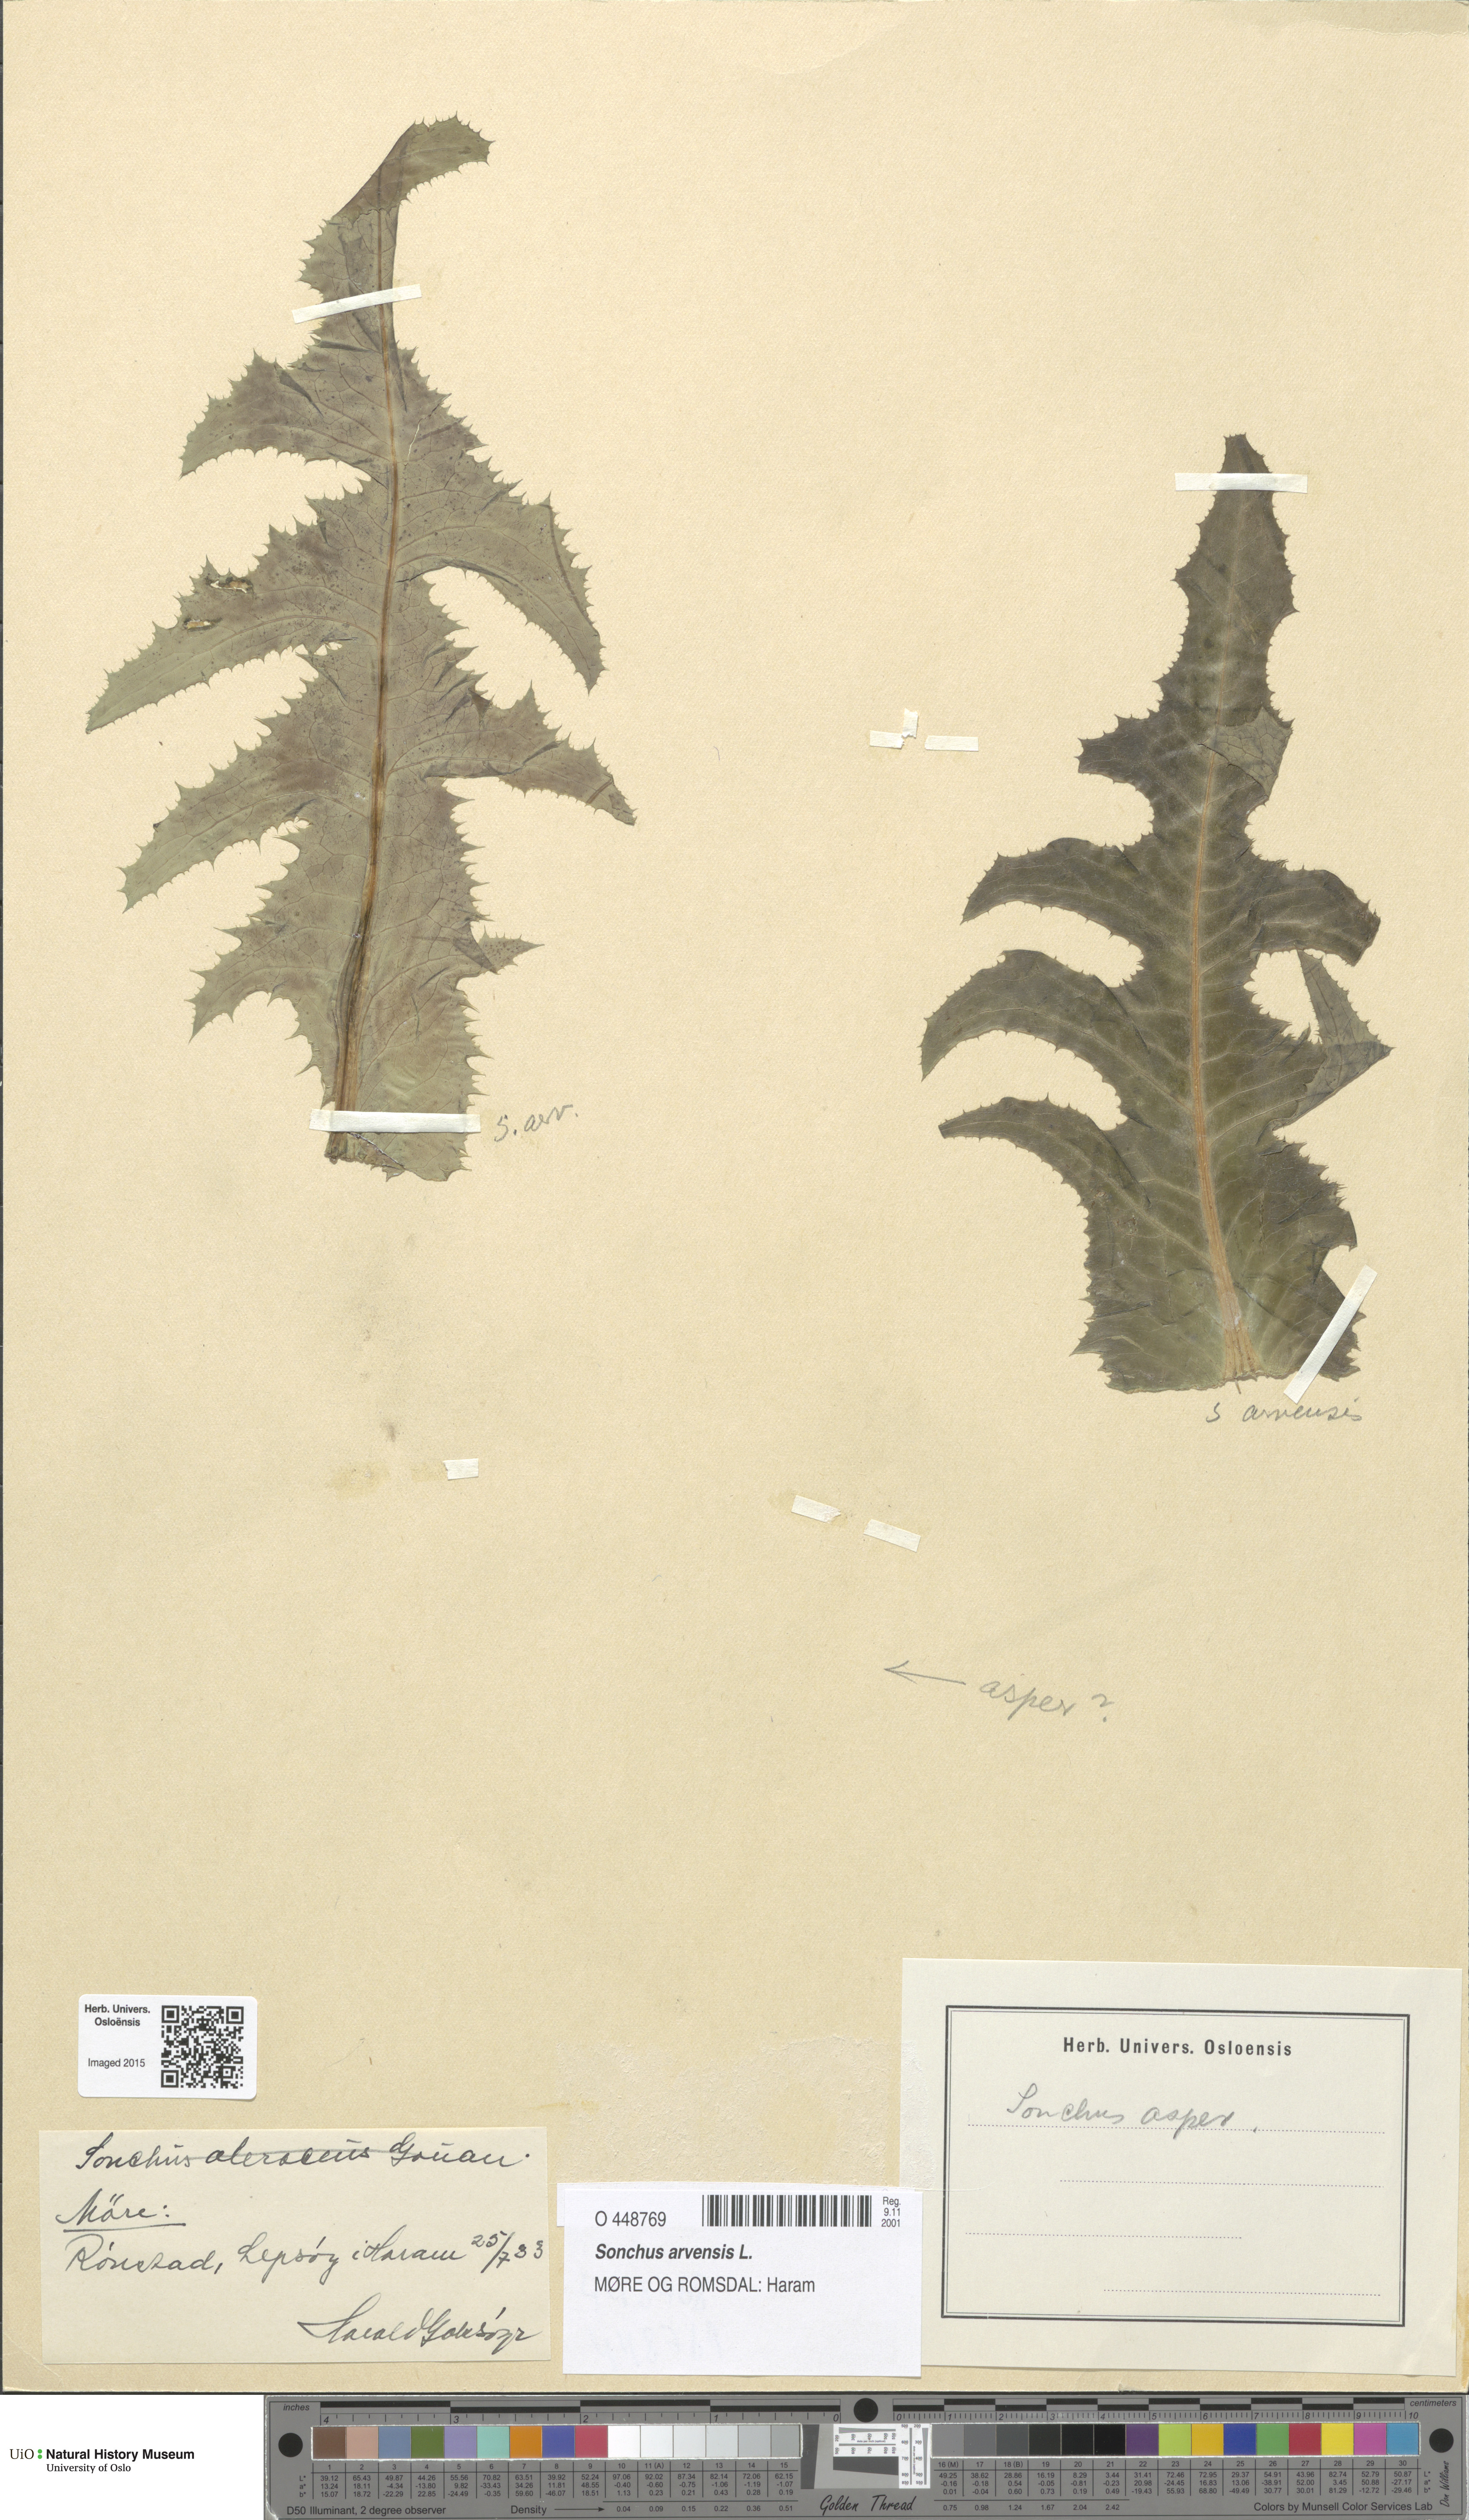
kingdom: Plantae
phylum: Tracheophyta
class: Magnoliopsida
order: Asterales
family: Asteraceae
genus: Sonchus
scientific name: Sonchus arvensis
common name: Perennial sow-thistle
